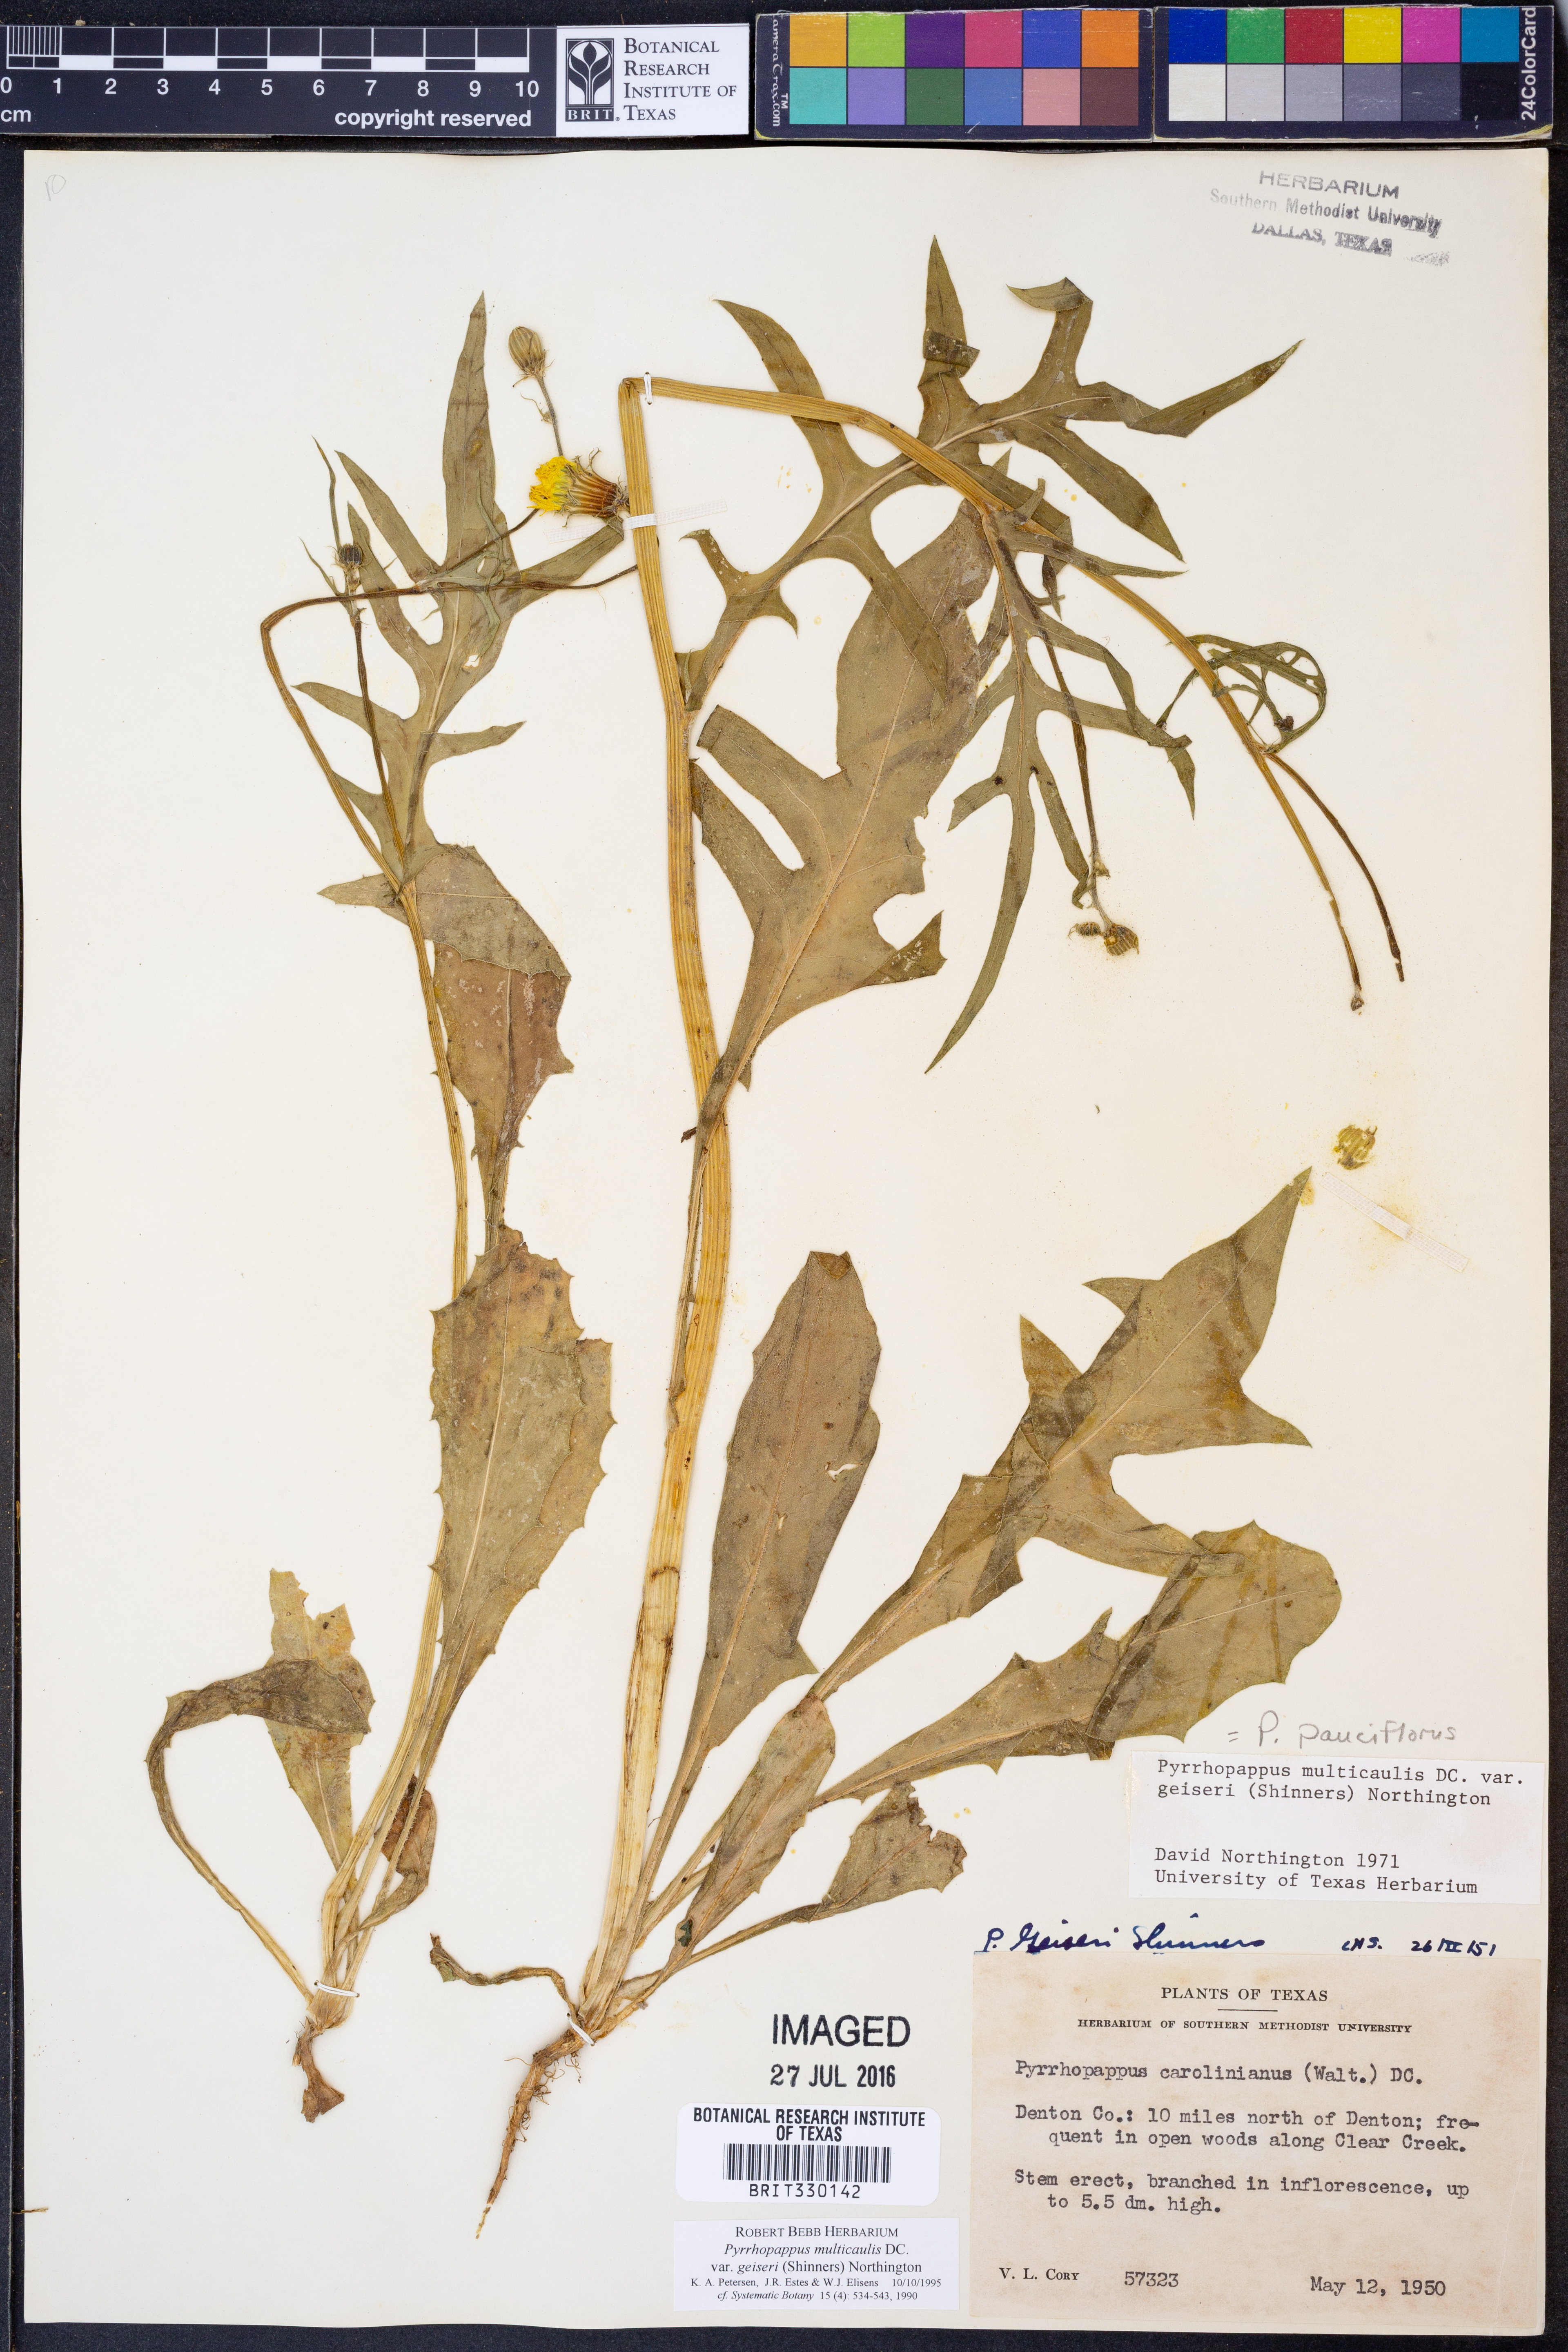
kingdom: Plantae
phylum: Tracheophyta
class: Magnoliopsida
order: Asterales
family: Asteraceae
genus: Pyrrhopappus
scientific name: Pyrrhopappus pauciflorus
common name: Texas false dandelion
